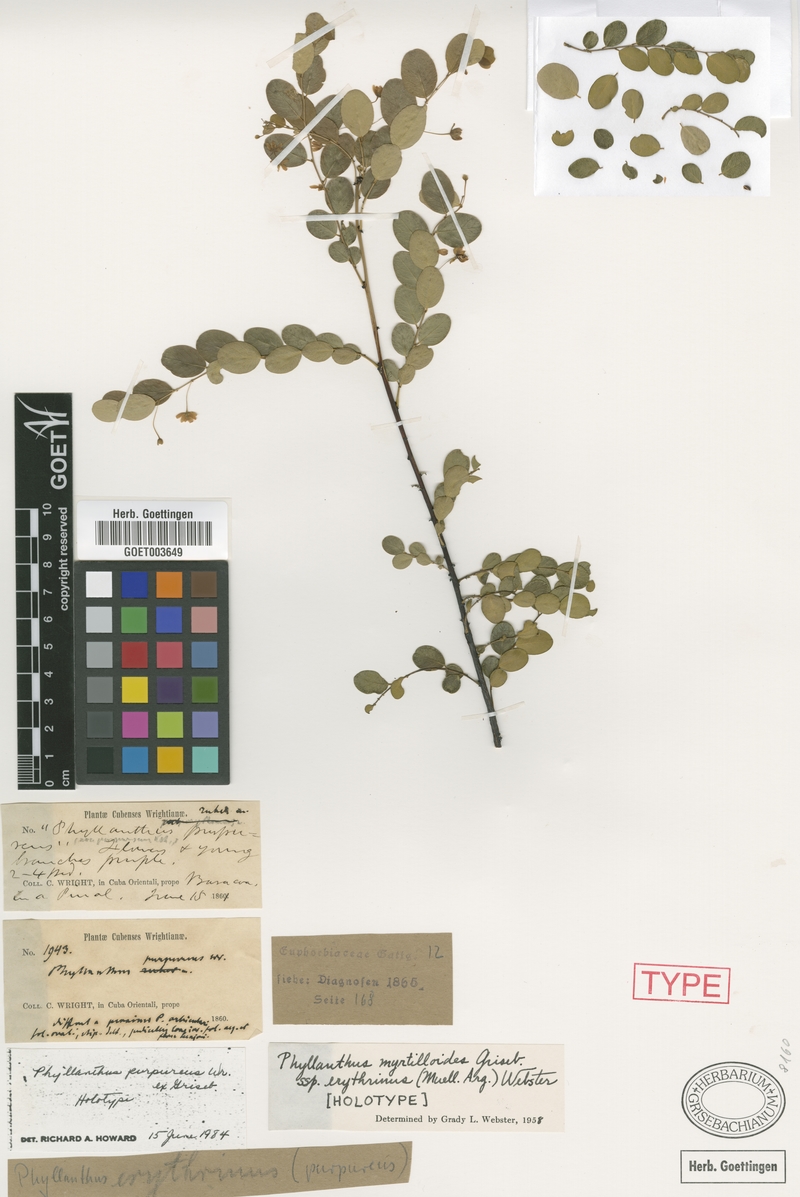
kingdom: Plantae
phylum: Tracheophyta
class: Magnoliopsida
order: Malpighiales
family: Phyllanthaceae
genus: Phyllanthus
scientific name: Phyllanthus myrtilloides
